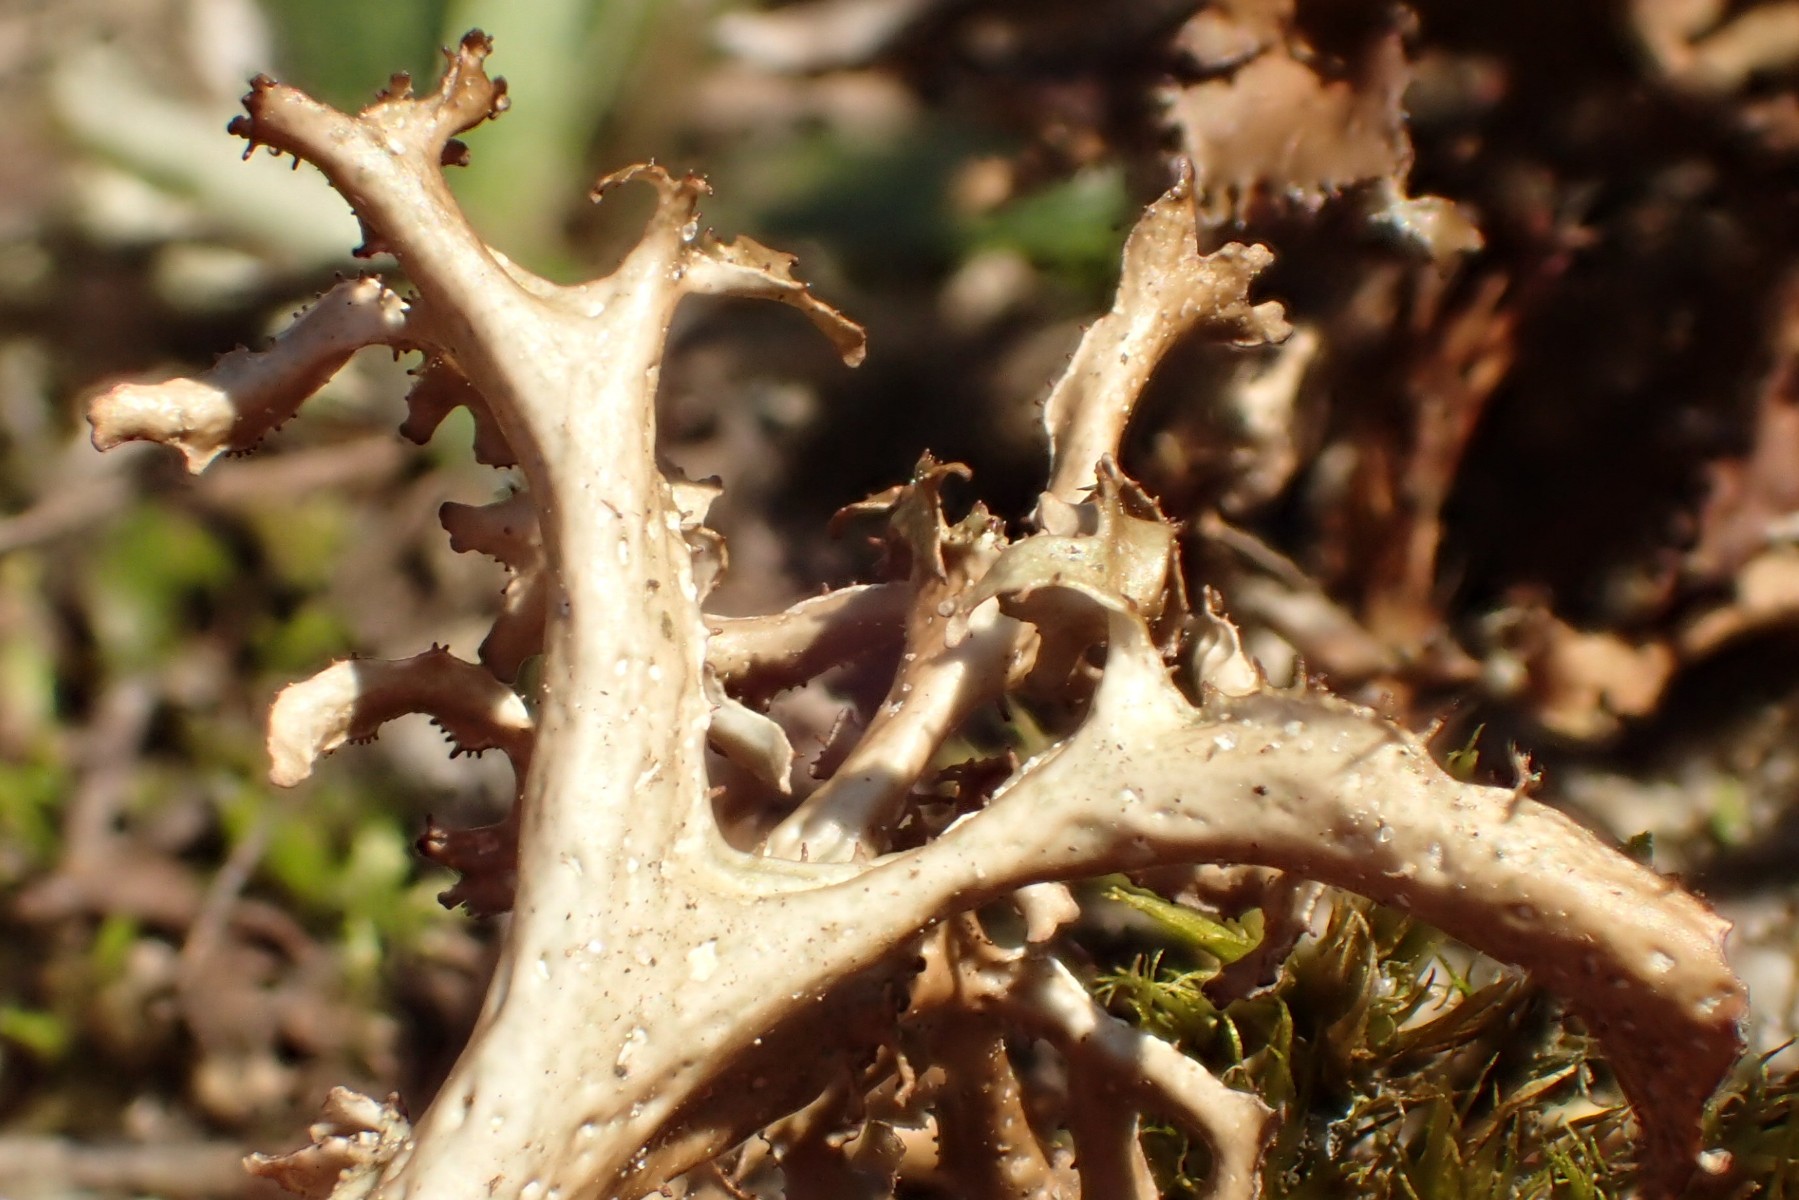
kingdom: Fungi
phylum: Ascomycota
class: Lecanoromycetes
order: Lecanorales
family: Parmeliaceae
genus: Cetraria
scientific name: Cetraria islandica
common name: islandsk kruslav
